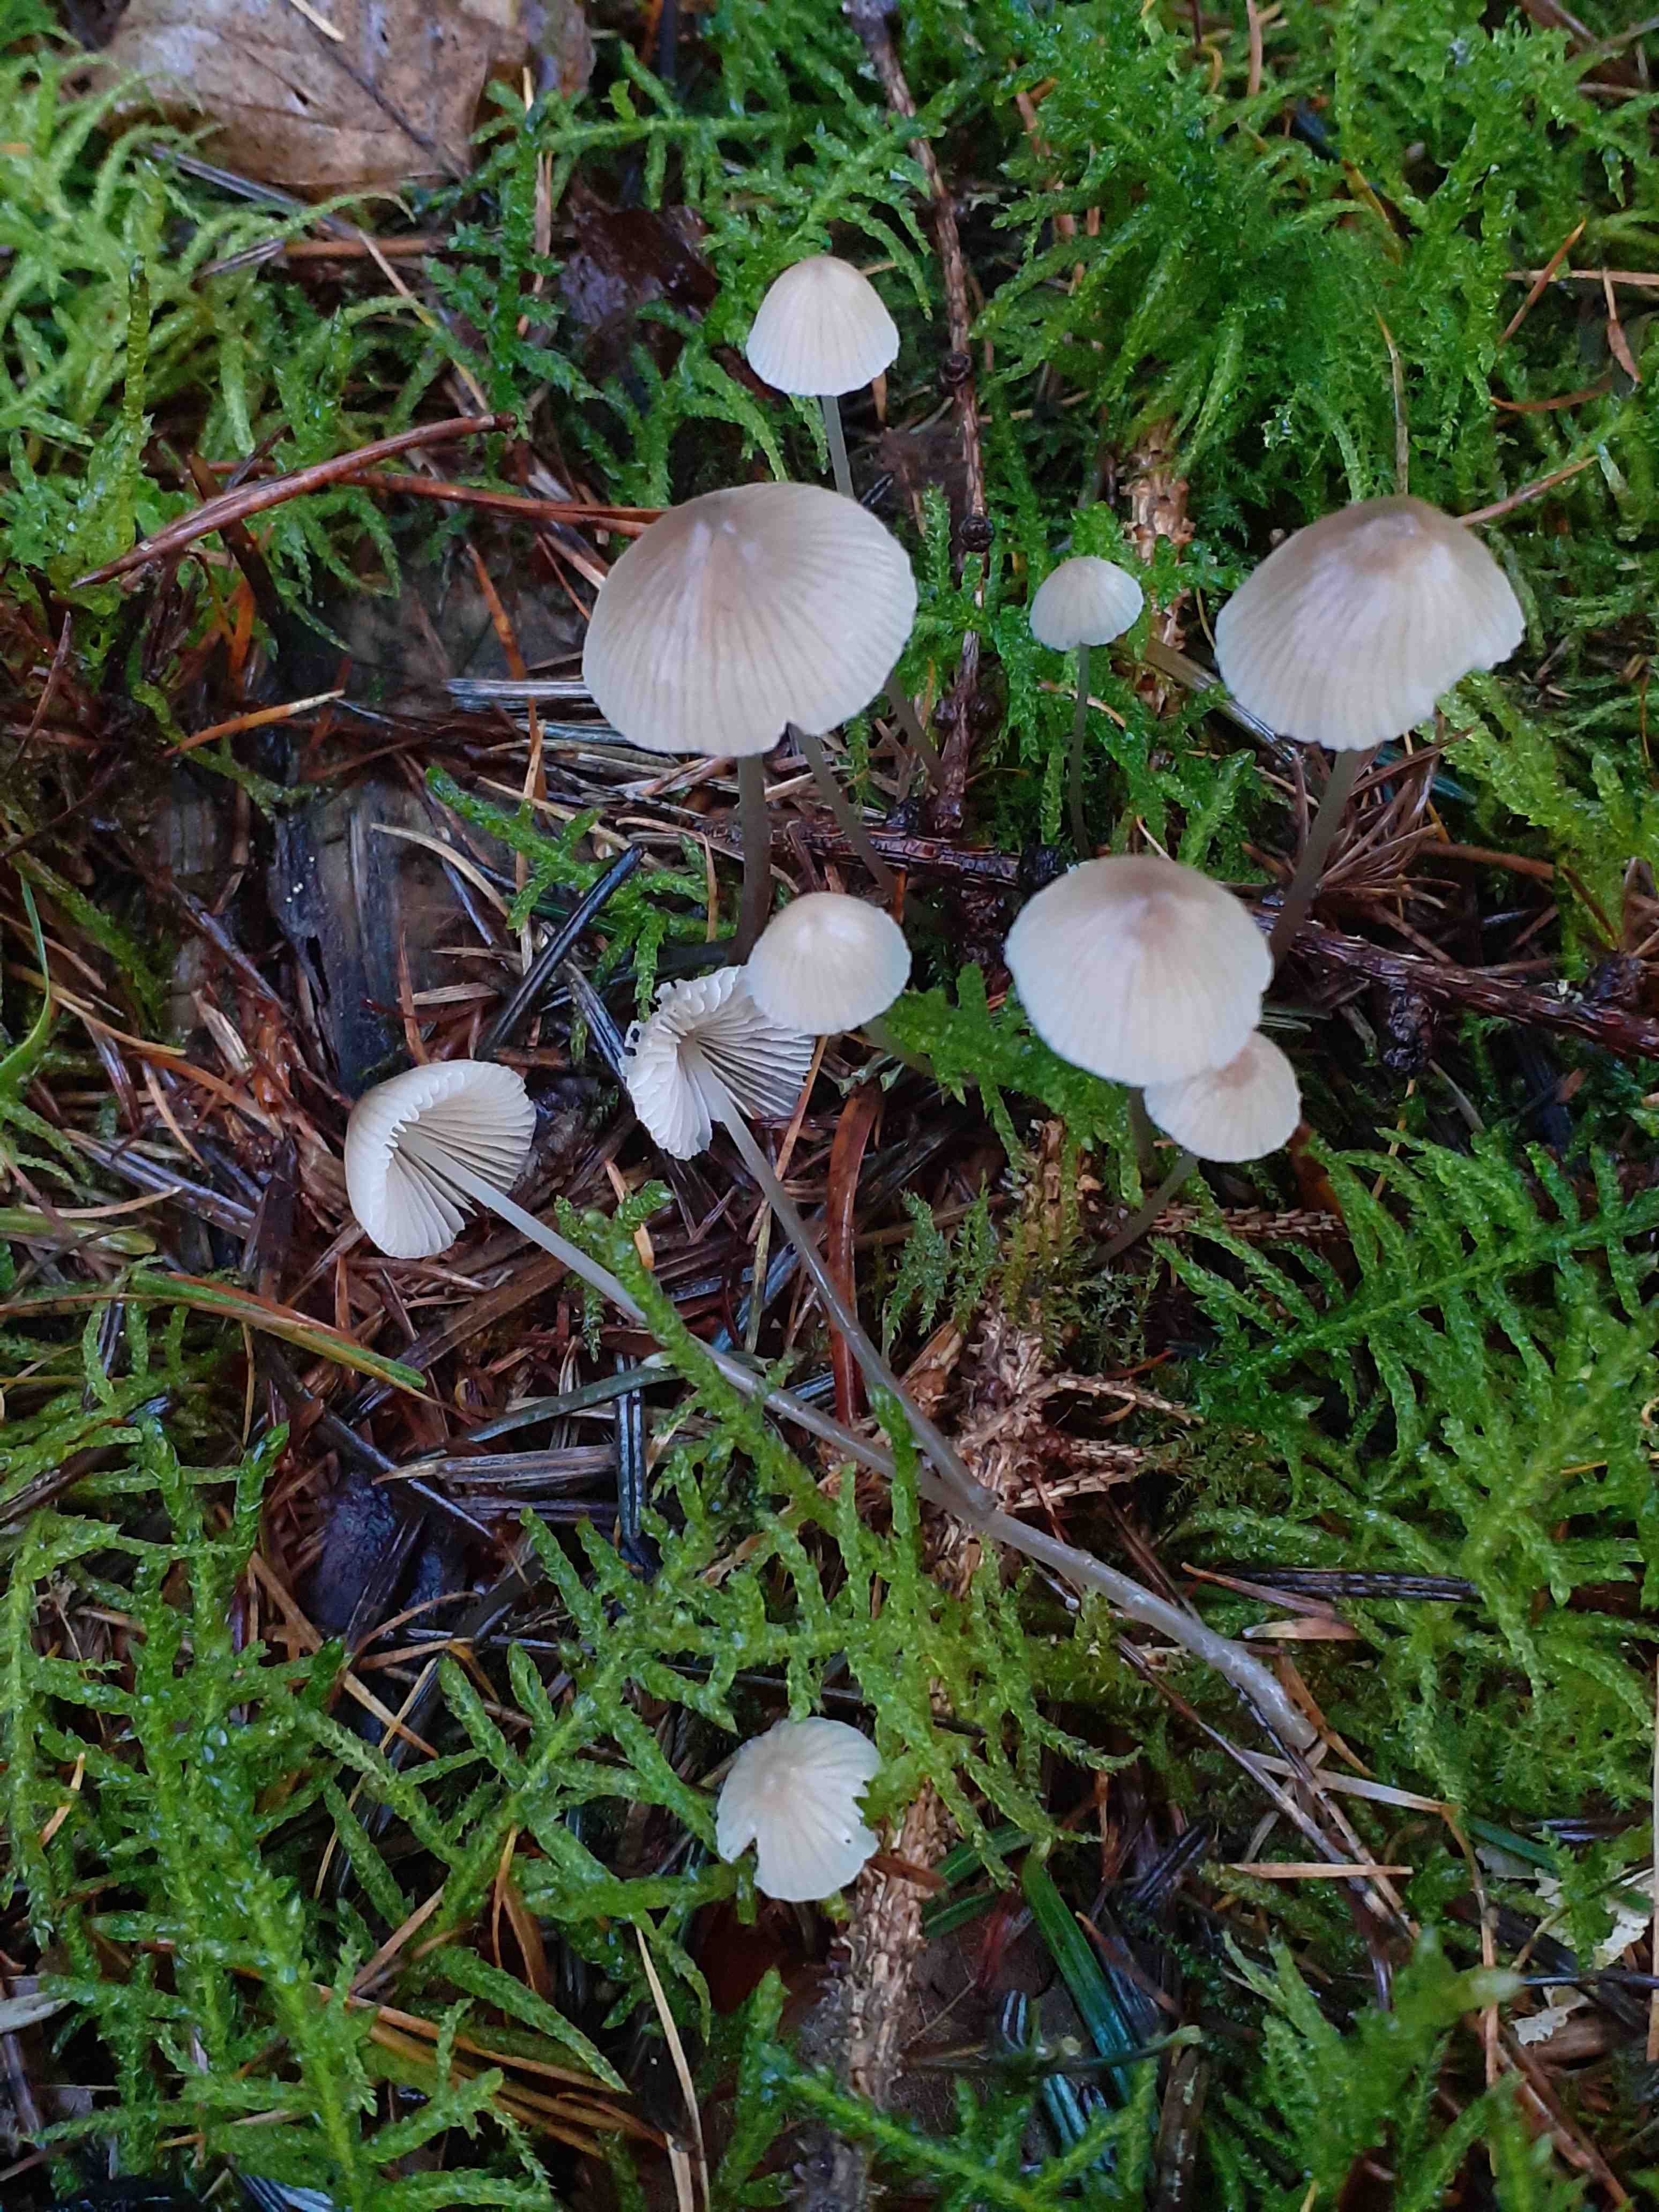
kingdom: Fungi
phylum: Basidiomycota
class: Agaricomycetes
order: Agaricales
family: Mycenaceae
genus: Mycena
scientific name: Mycena filopes
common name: jod-huesvamp
